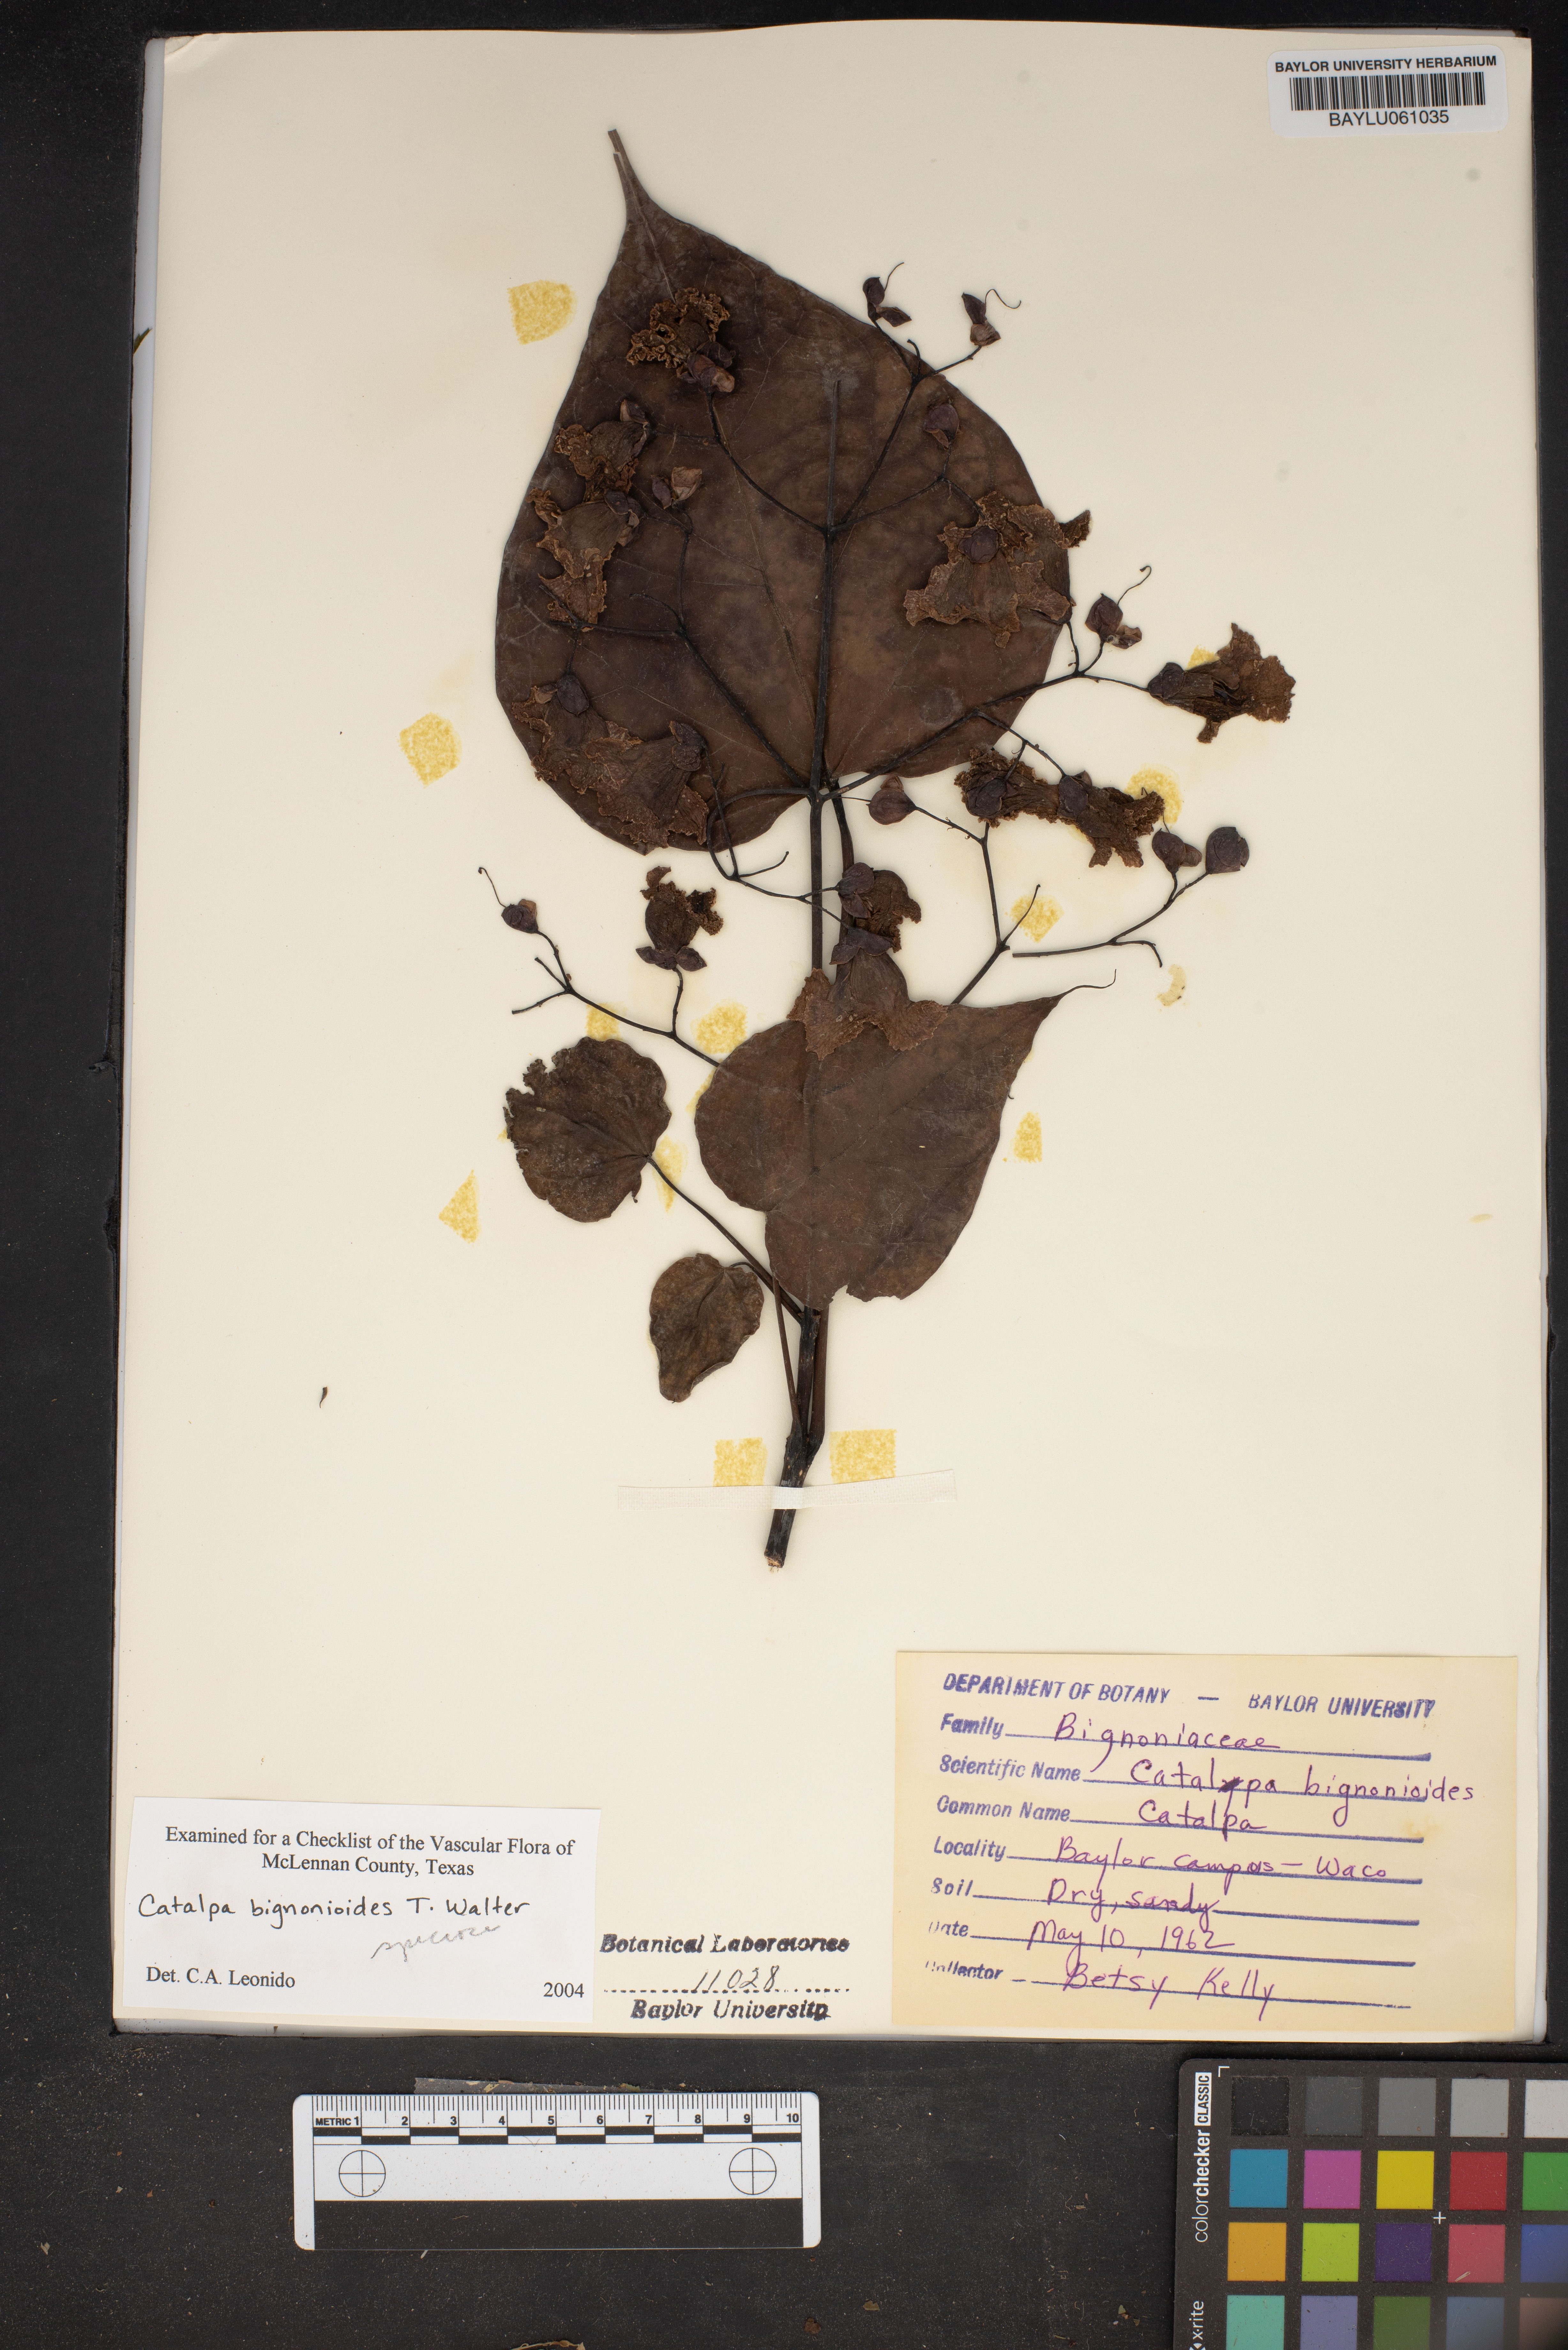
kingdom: Plantae
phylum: Tracheophyta
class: Magnoliopsida
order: Lamiales
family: Bignoniaceae
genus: Catalpa
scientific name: Catalpa bignonioides
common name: Southern catalpa
